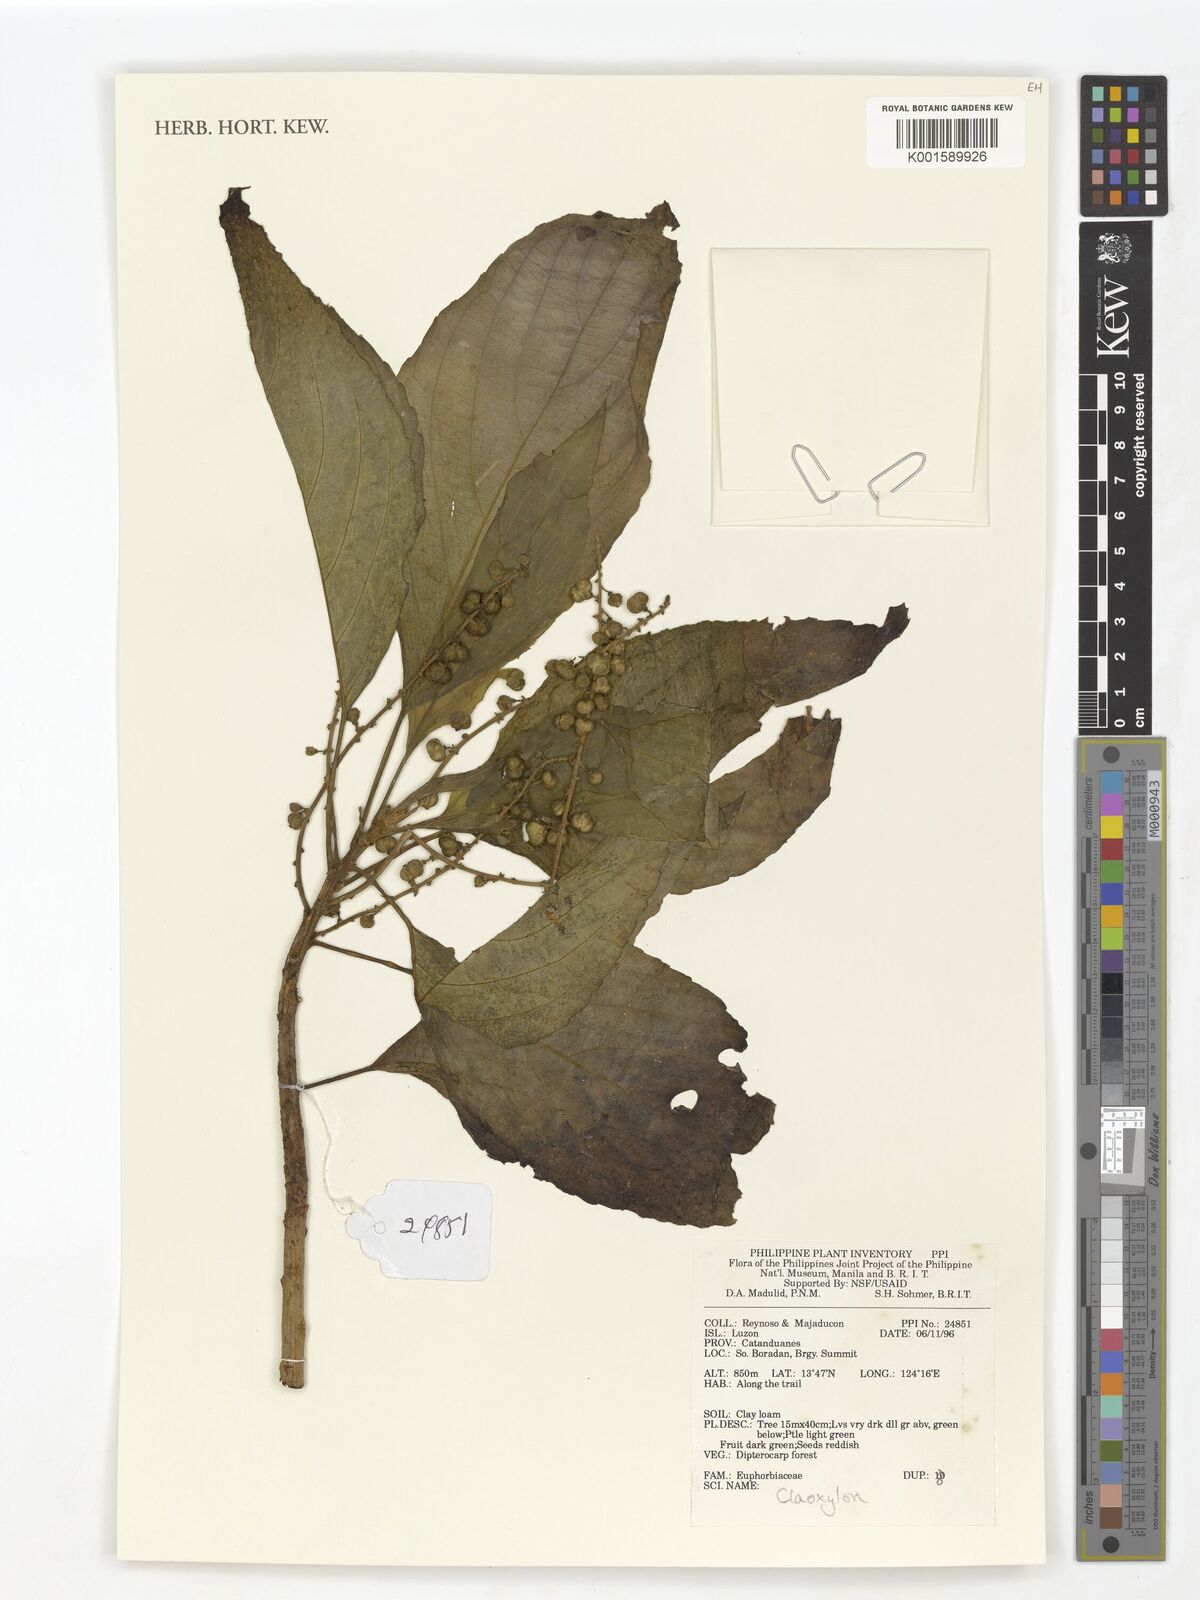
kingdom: Plantae
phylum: Tracheophyta
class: Magnoliopsida
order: Malpighiales
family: Euphorbiaceae
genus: Claoxylon
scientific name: Claoxylon
